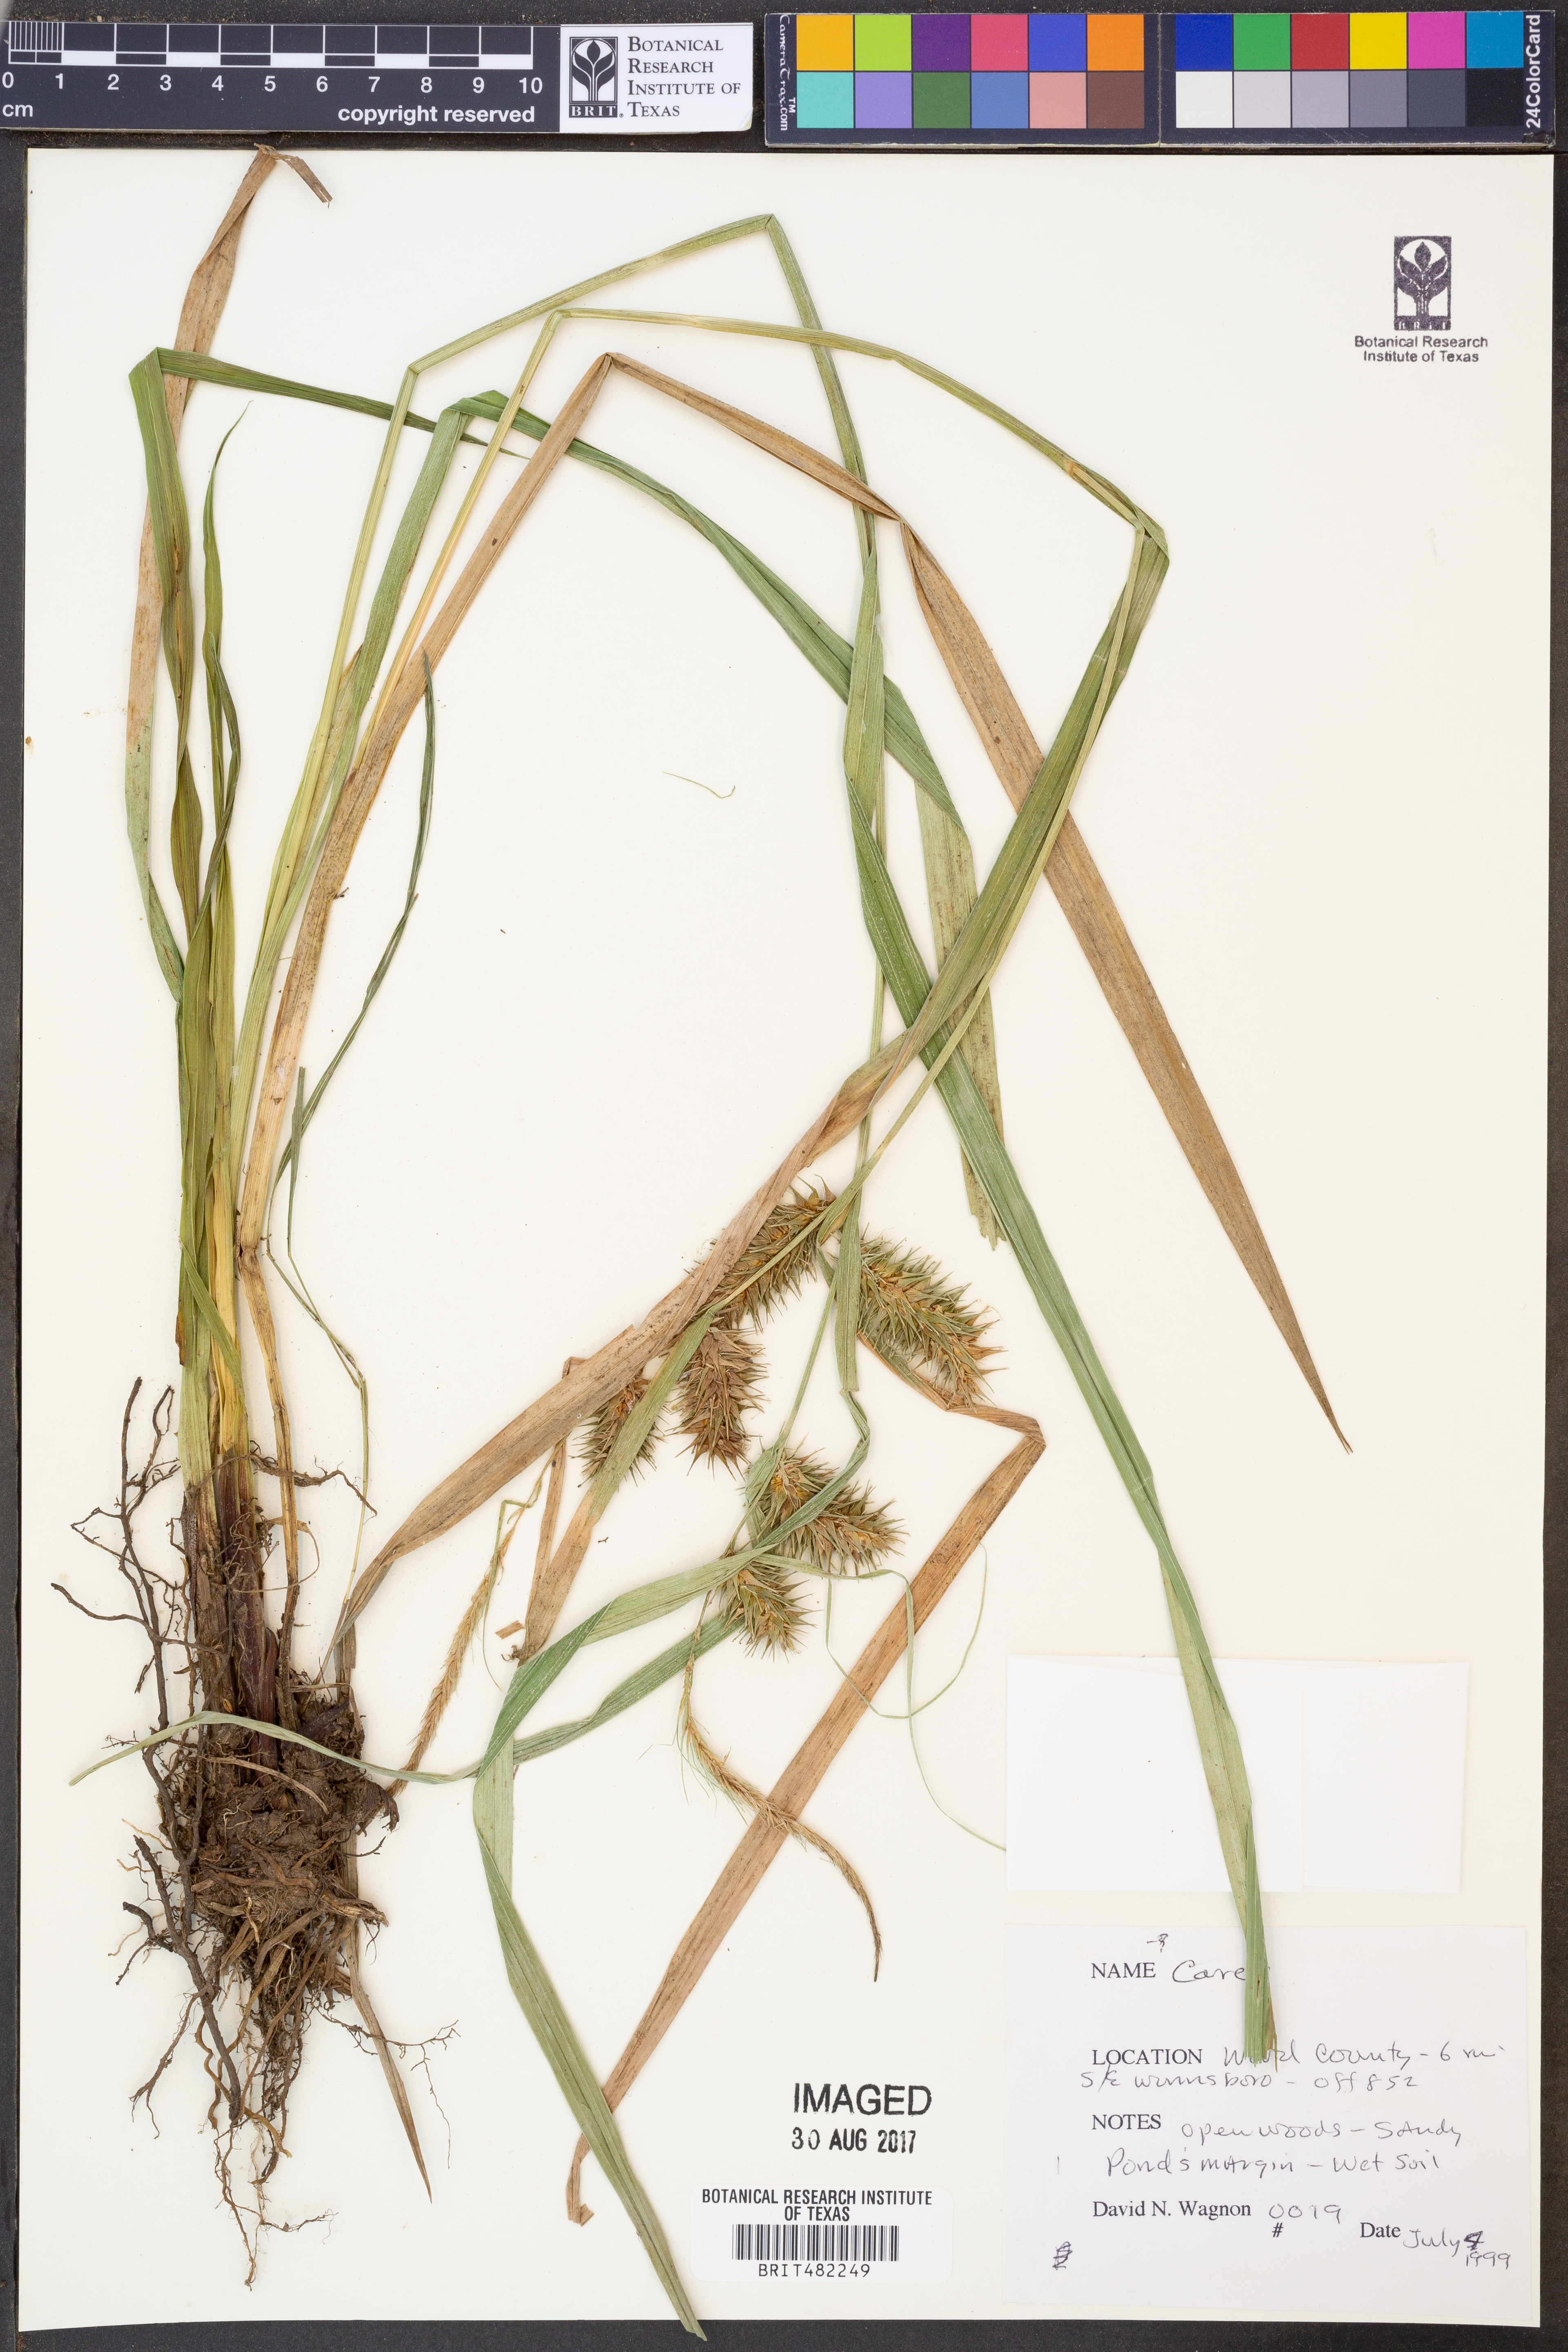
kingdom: Plantae
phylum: Tracheophyta
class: Liliopsida
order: Poales
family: Cyperaceae
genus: Carex
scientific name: Carex
